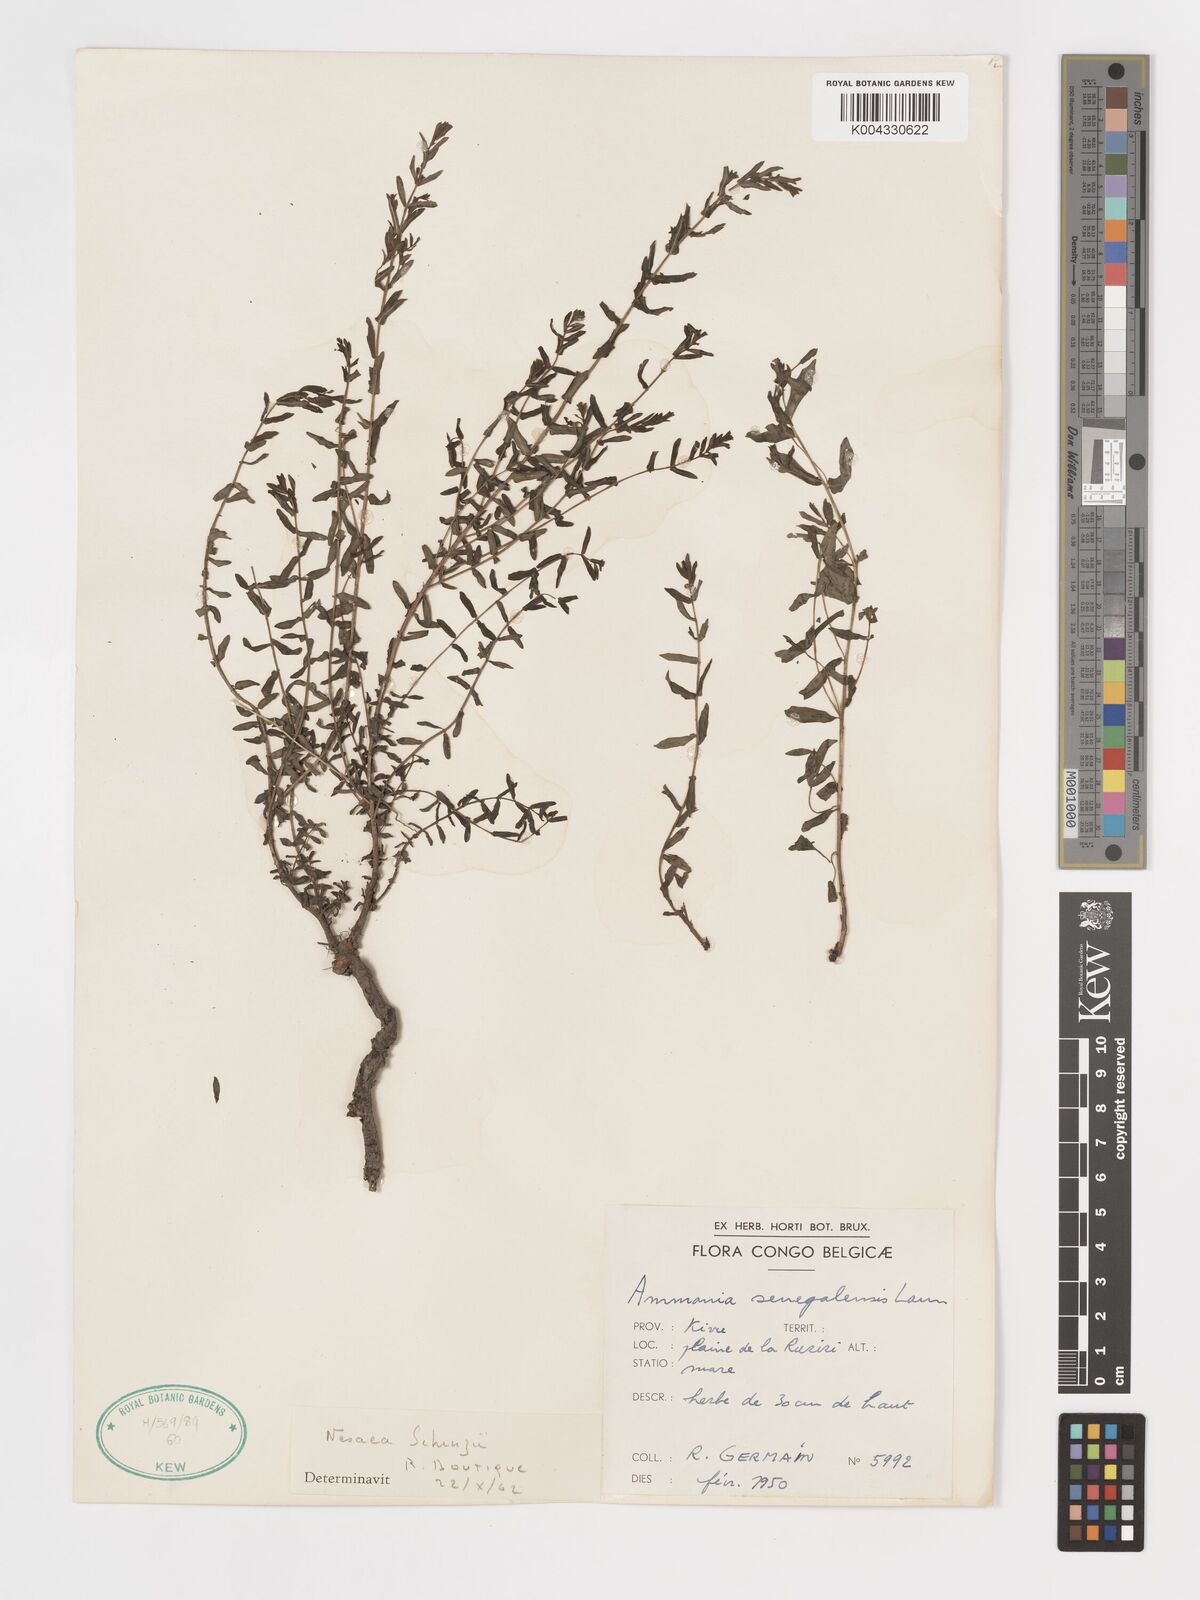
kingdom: Plantae
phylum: Tracheophyta
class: Magnoliopsida
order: Myrtales
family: Lythraceae
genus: Ammannia
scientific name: Ammannia schinzii
